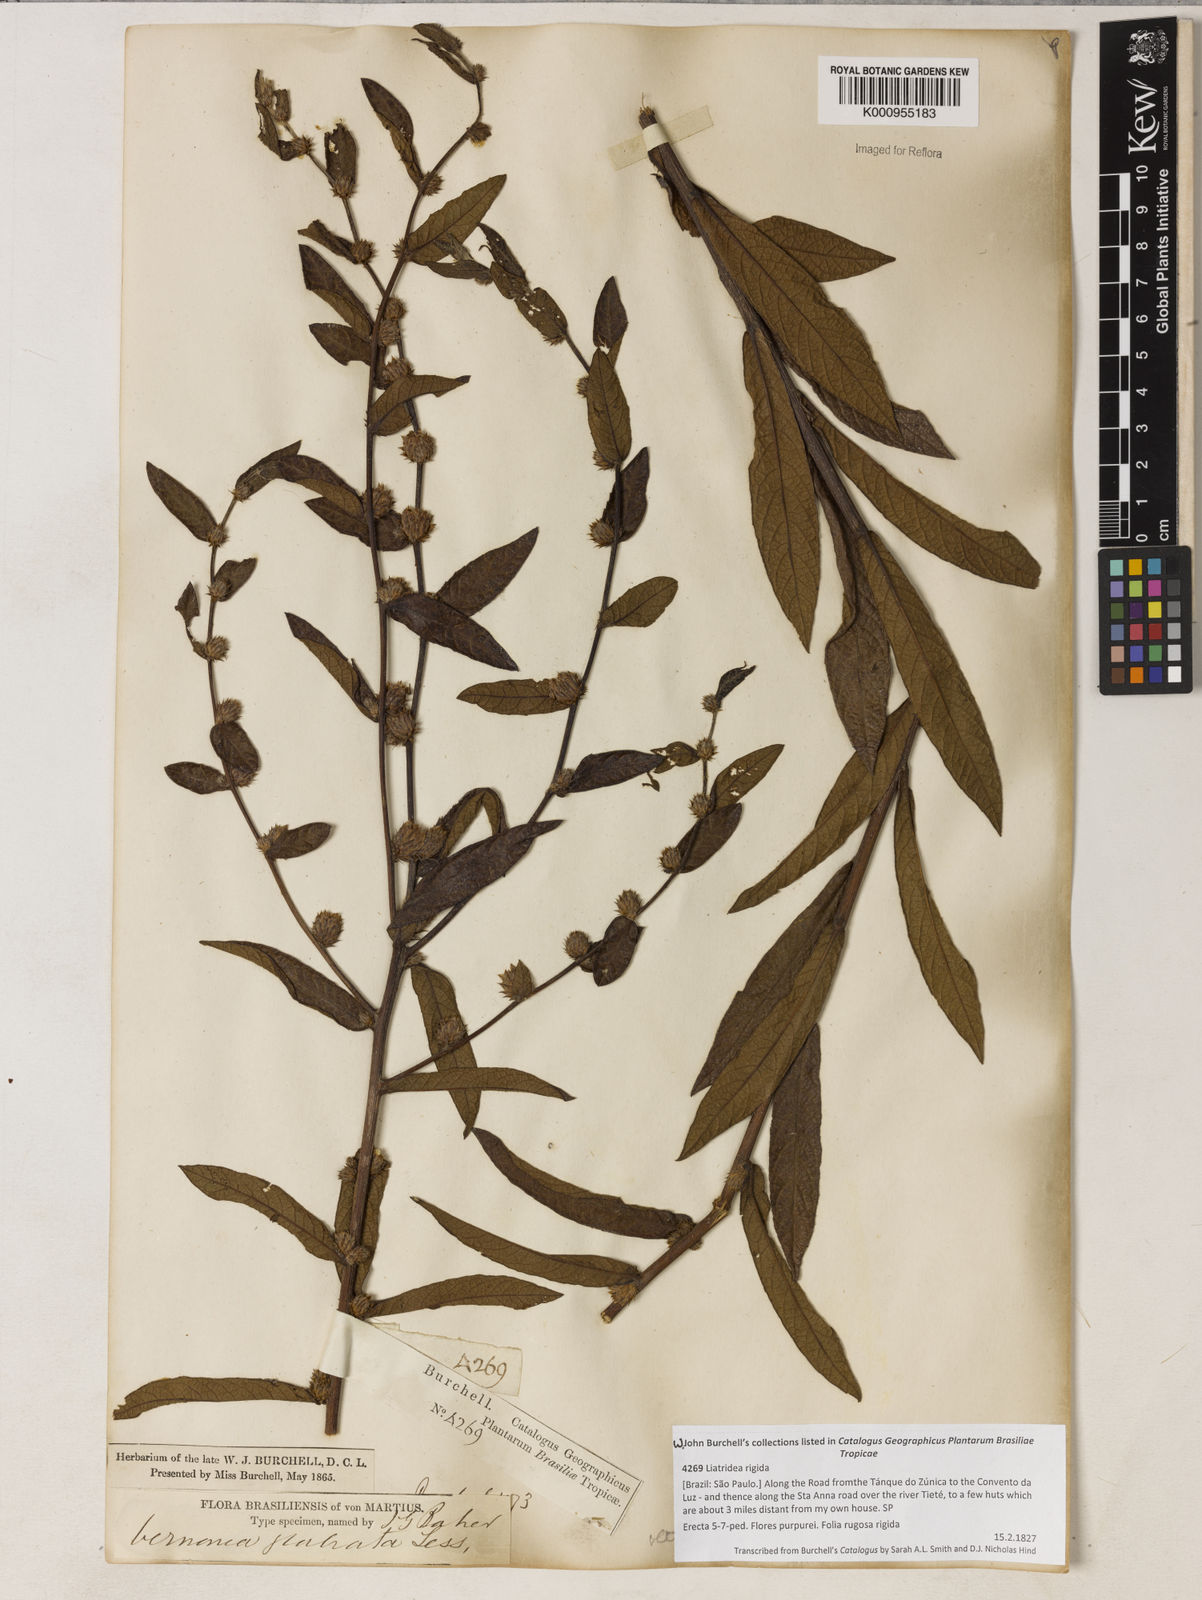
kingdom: Plantae
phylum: Tracheophyta
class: Magnoliopsida
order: Asterales
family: Asteraceae
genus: Lessingianthus
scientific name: Lessingianthus glabratus
